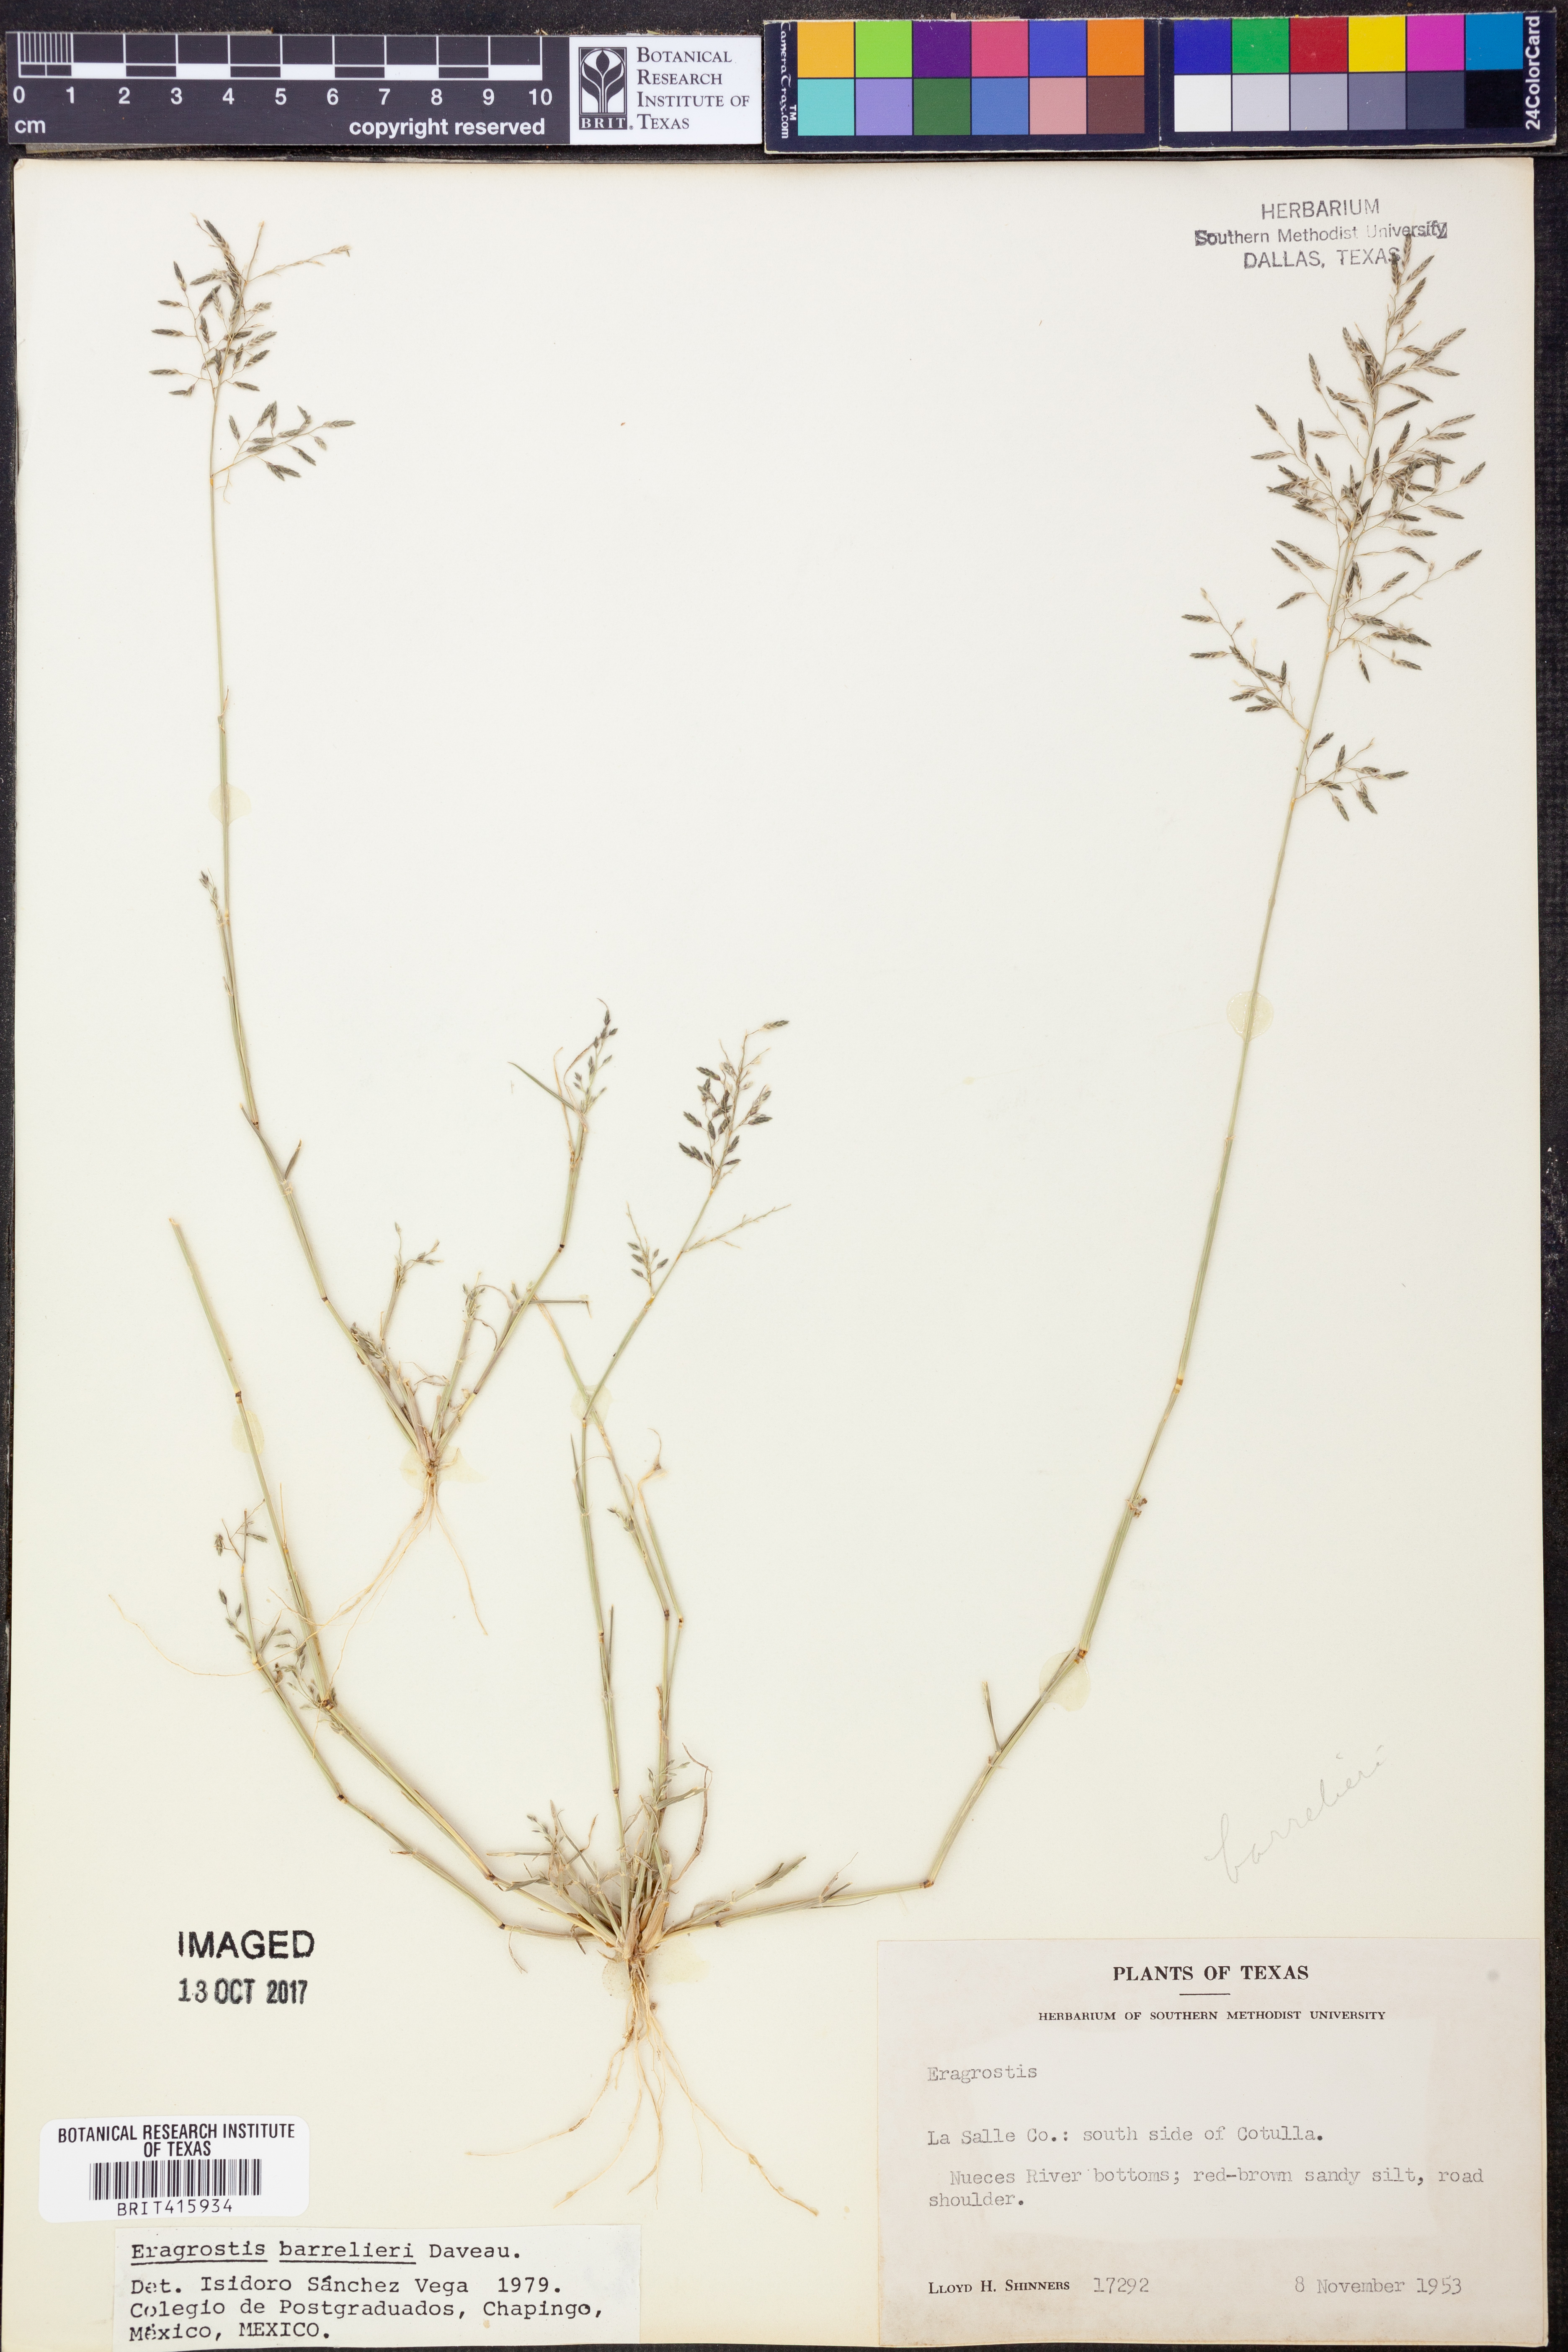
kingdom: Plantae
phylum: Tracheophyta
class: Liliopsida
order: Poales
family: Poaceae
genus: Eragrostis
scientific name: Eragrostis barrelieri
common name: Mediterranean lovegrass
